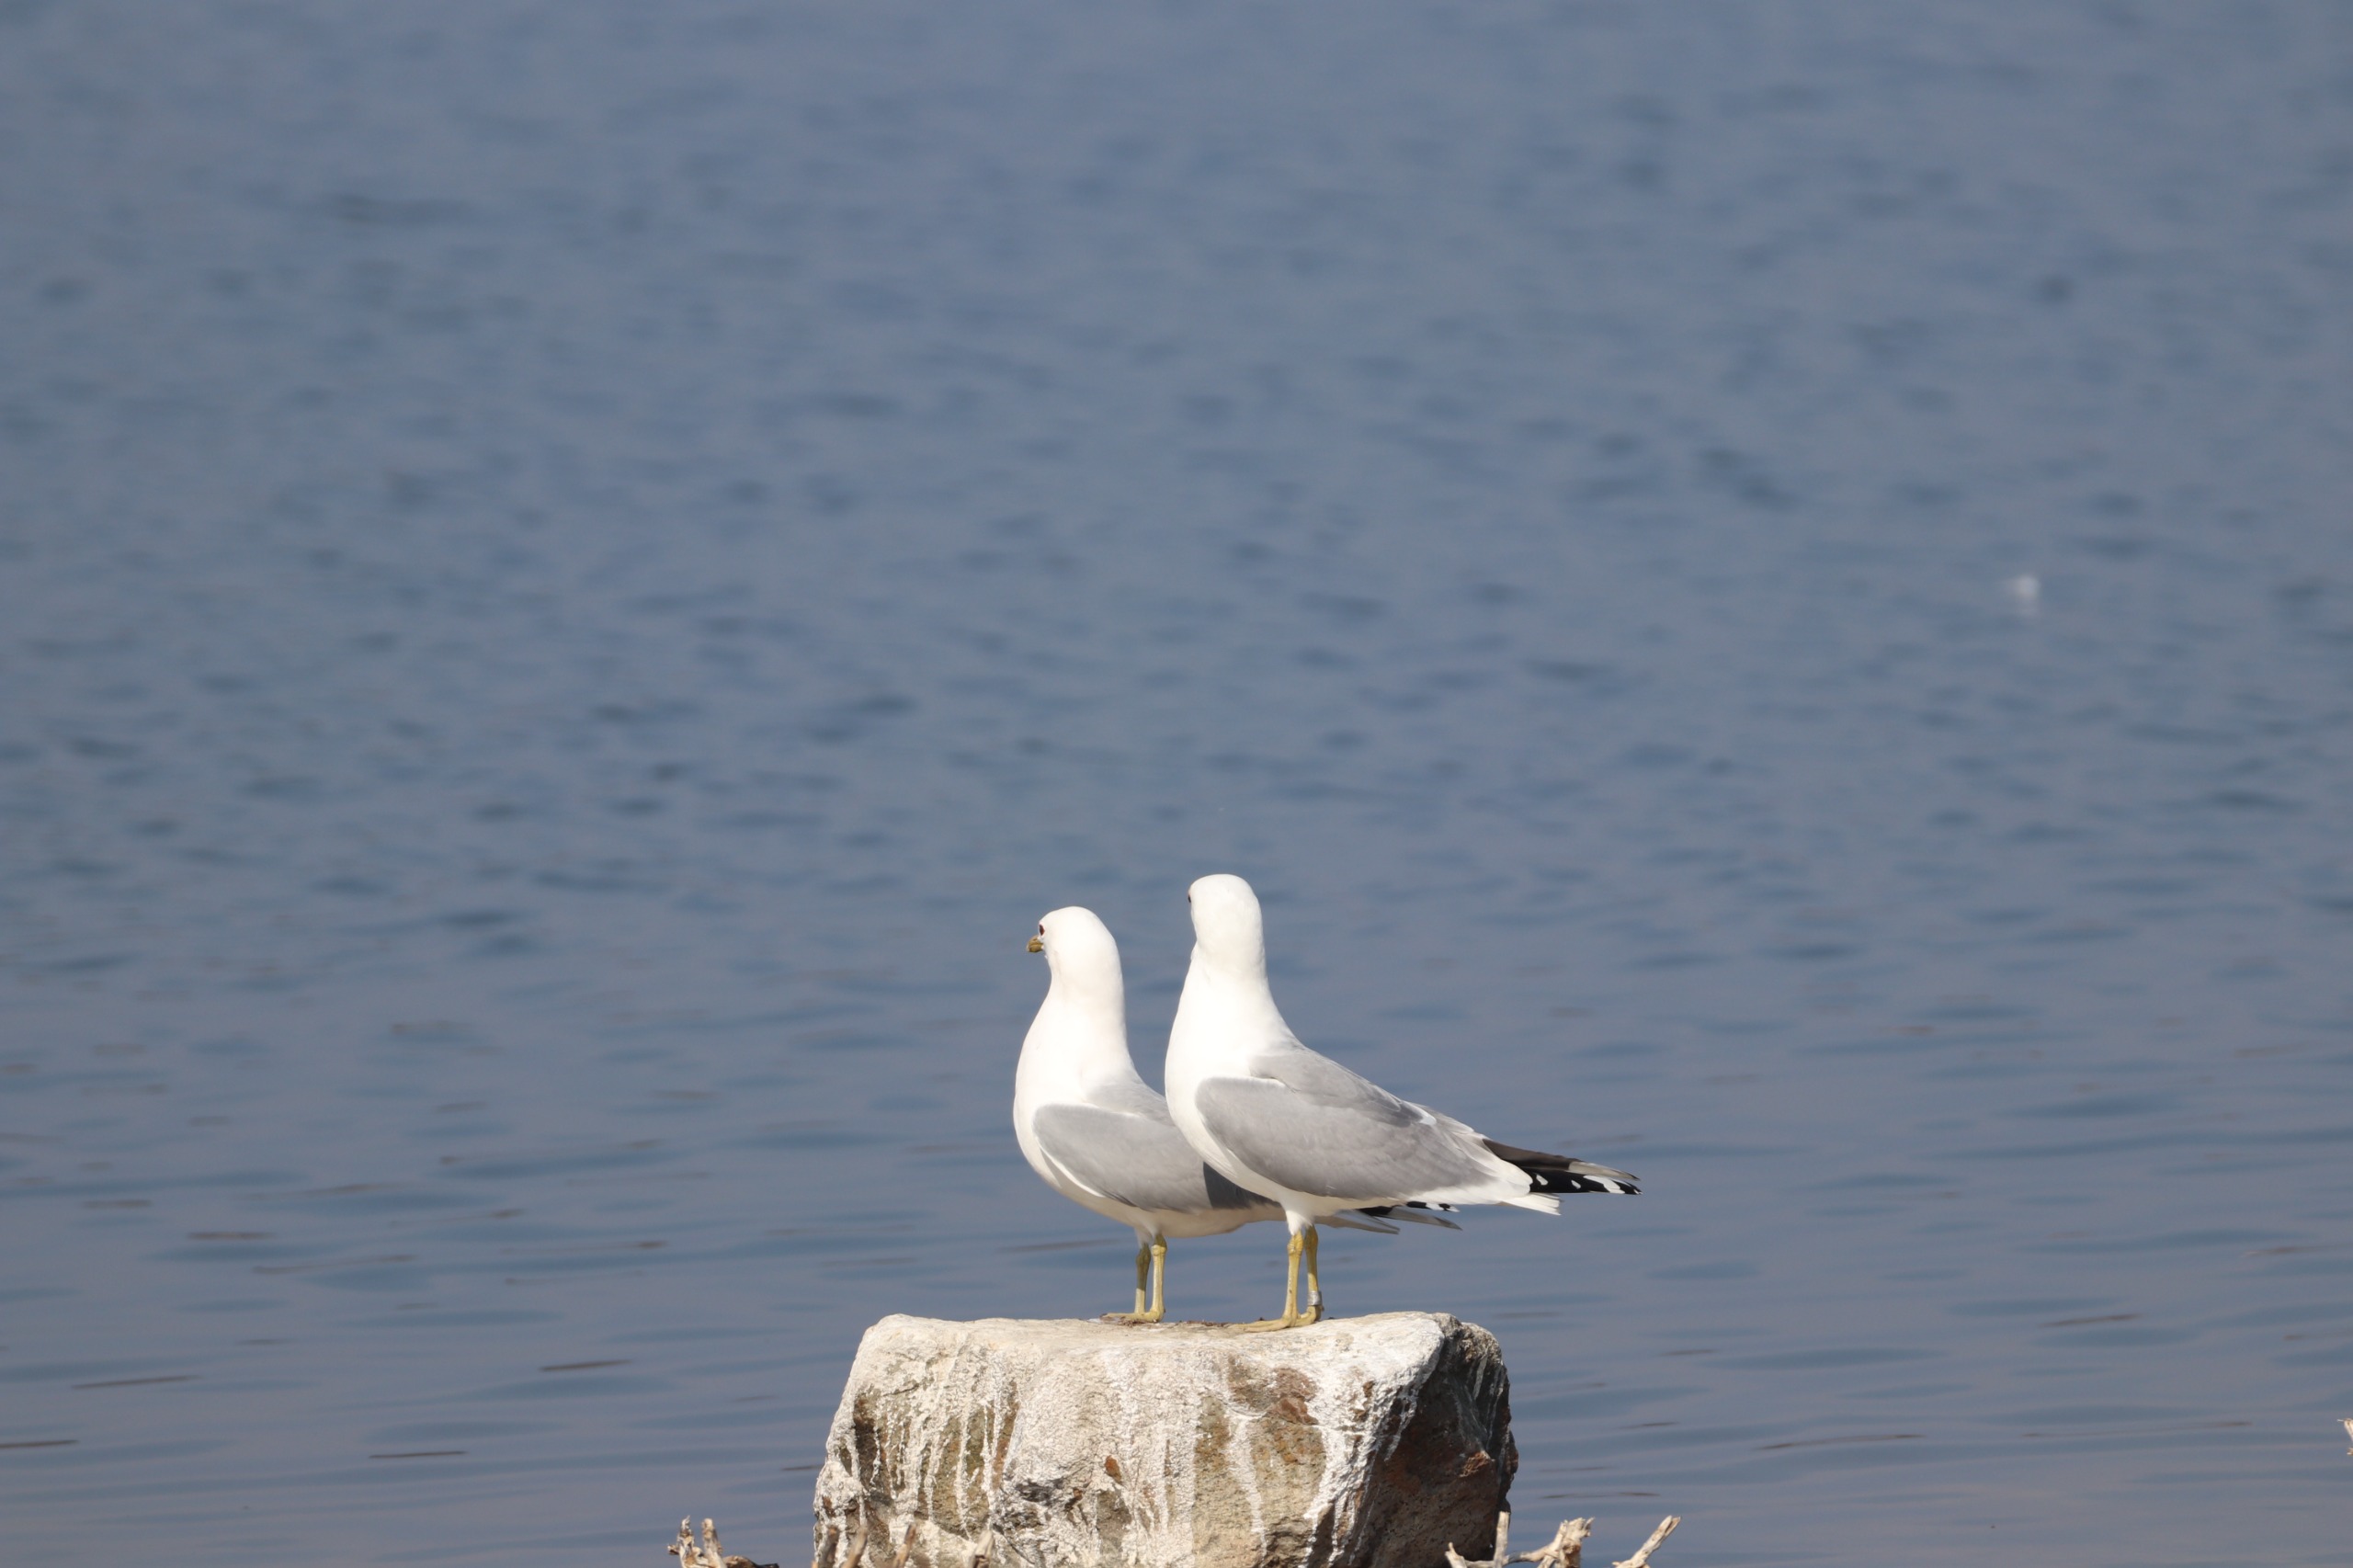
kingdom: Animalia
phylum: Chordata
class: Aves
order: Charadriiformes
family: Laridae
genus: Larus
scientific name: Larus canus
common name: Stormmåge
